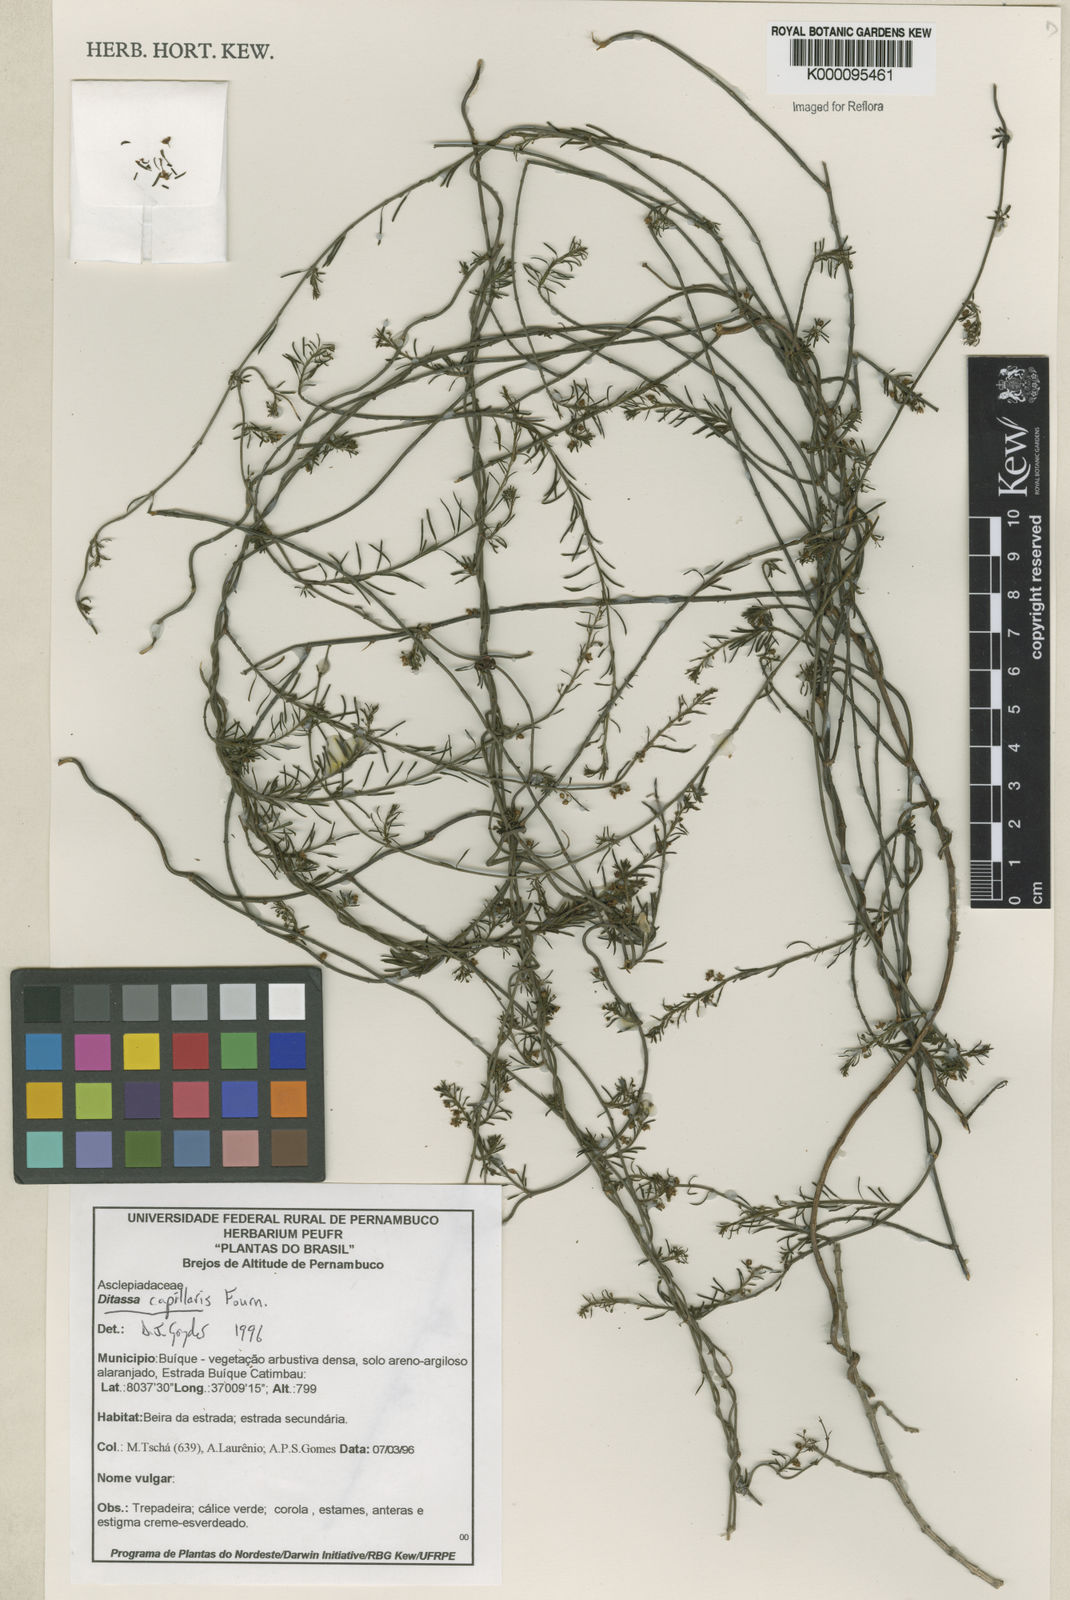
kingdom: Plantae
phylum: Tracheophyta
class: Magnoliopsida
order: Gentianales
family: Apocynaceae
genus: Ditassa
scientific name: Ditassa capillaris
